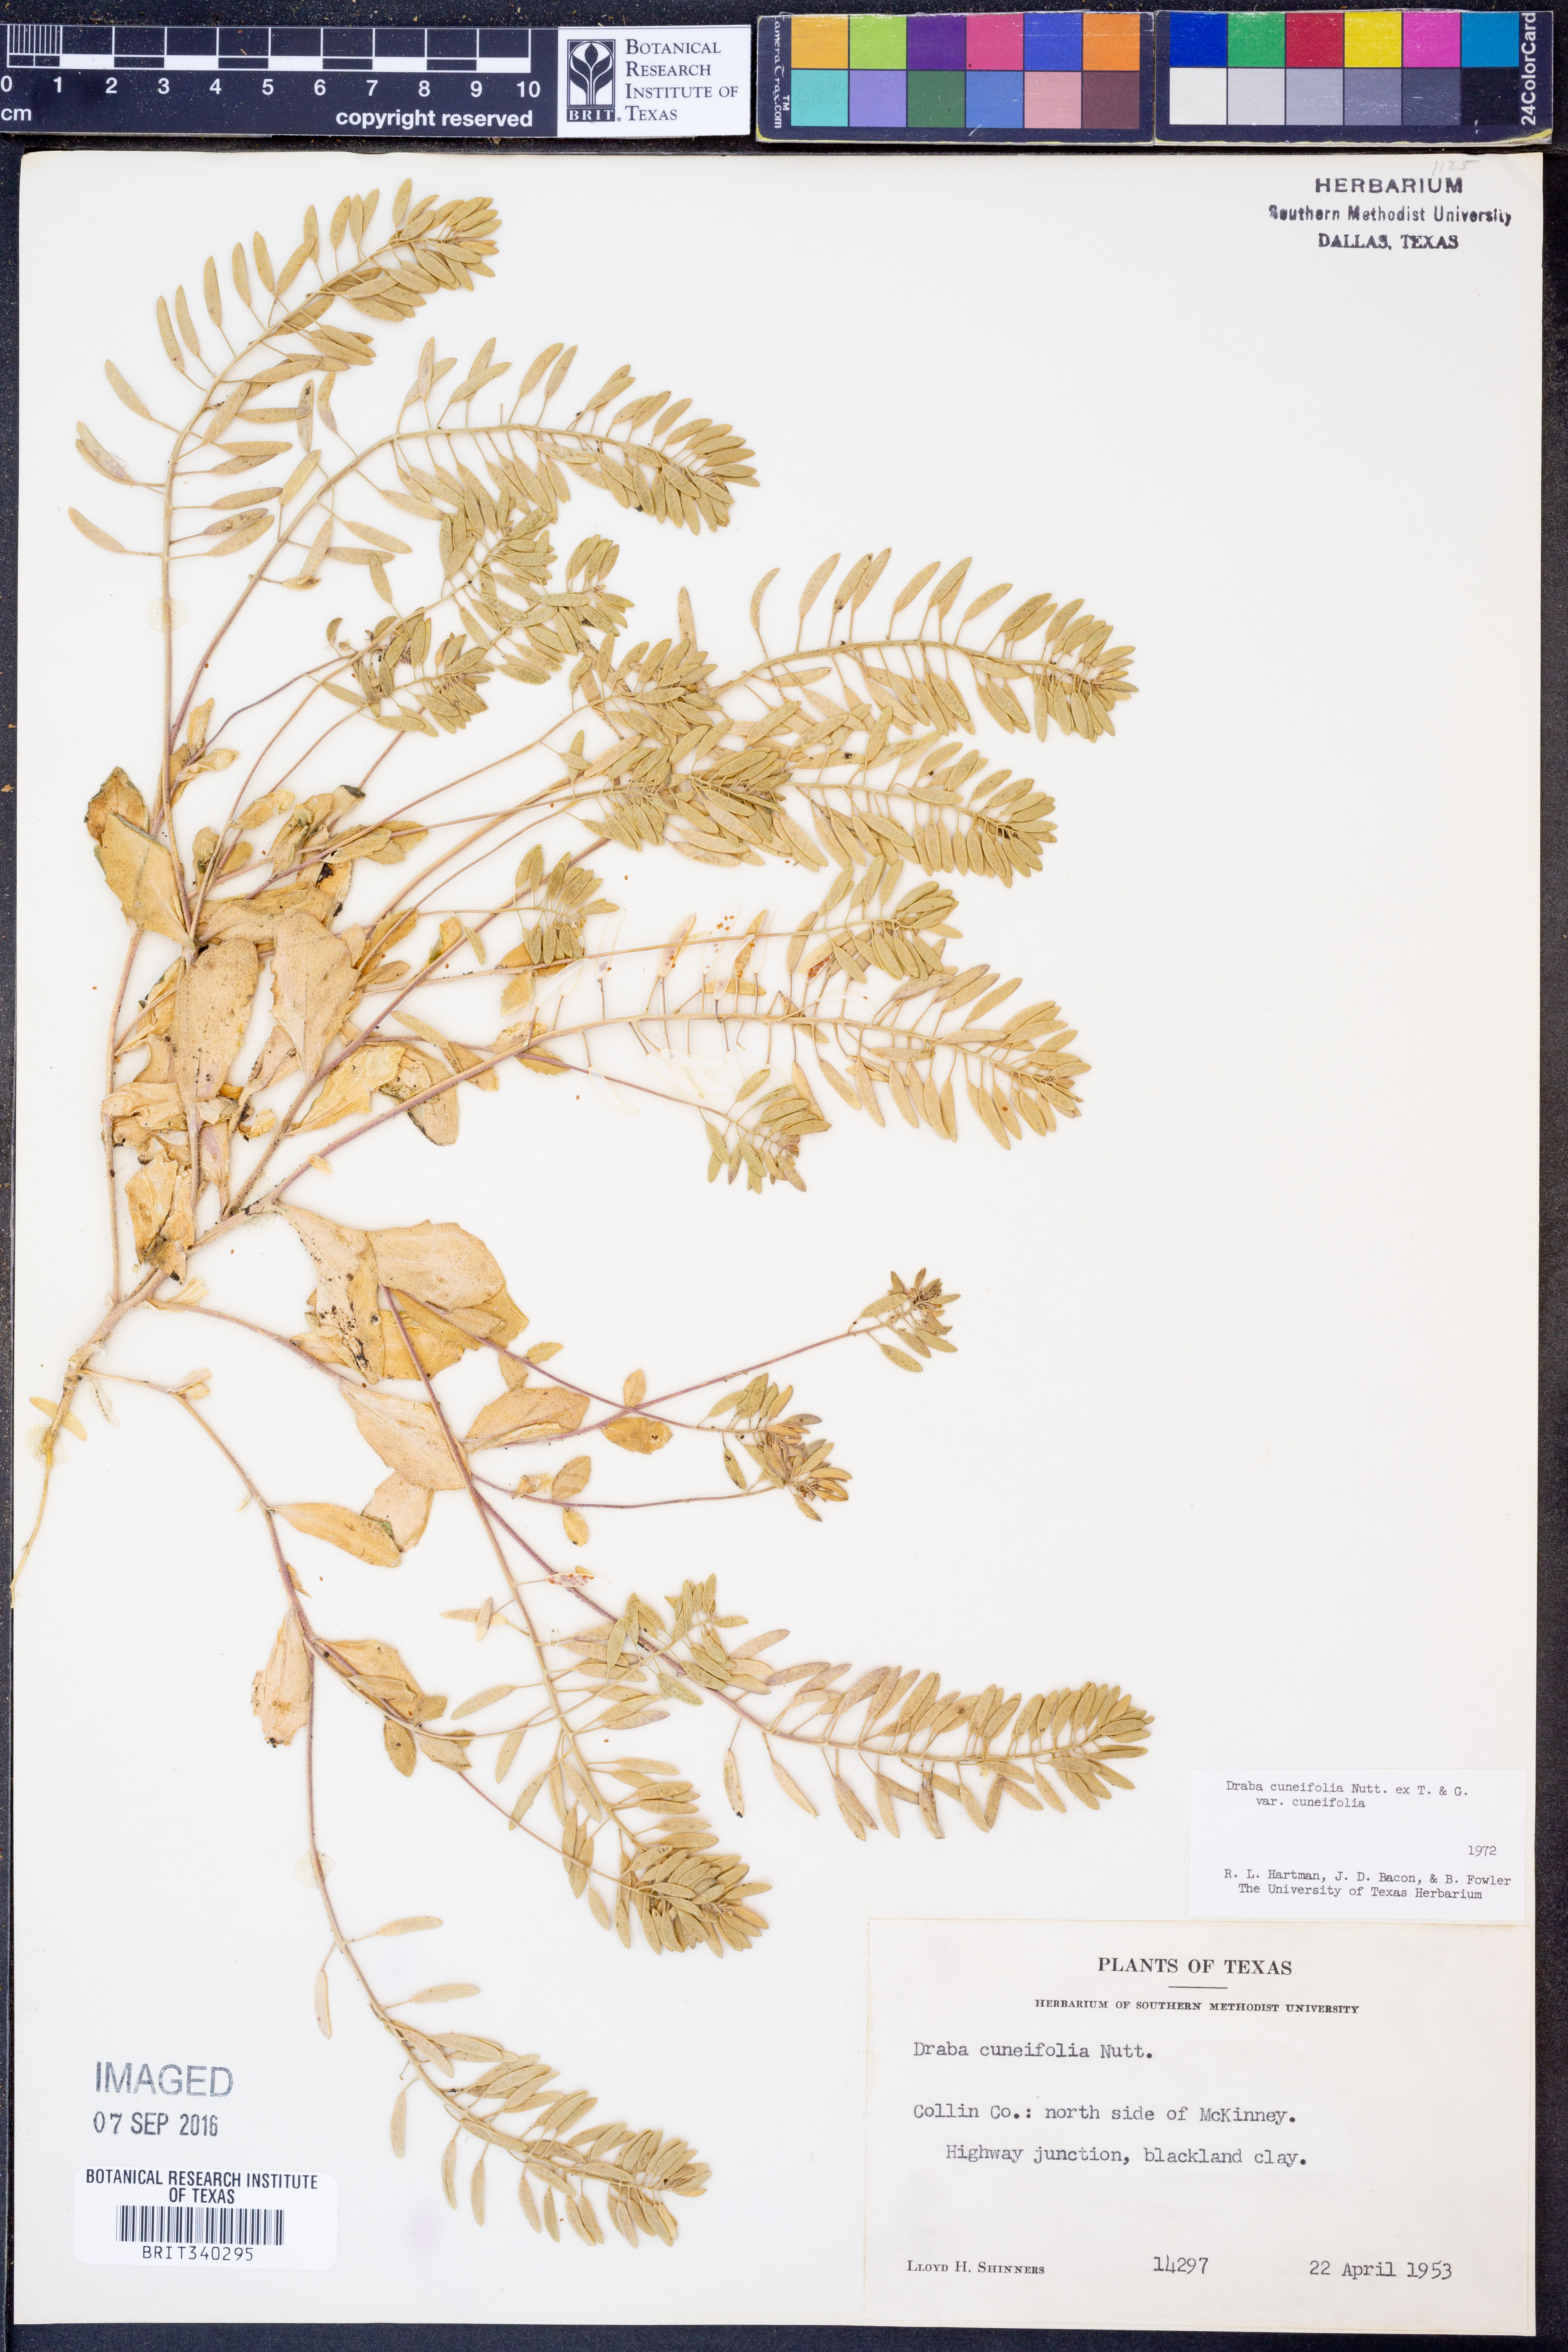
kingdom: Plantae
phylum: Tracheophyta
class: Magnoliopsida
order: Brassicales
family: Brassicaceae
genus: Tomostima
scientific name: Tomostima cuneifolia
